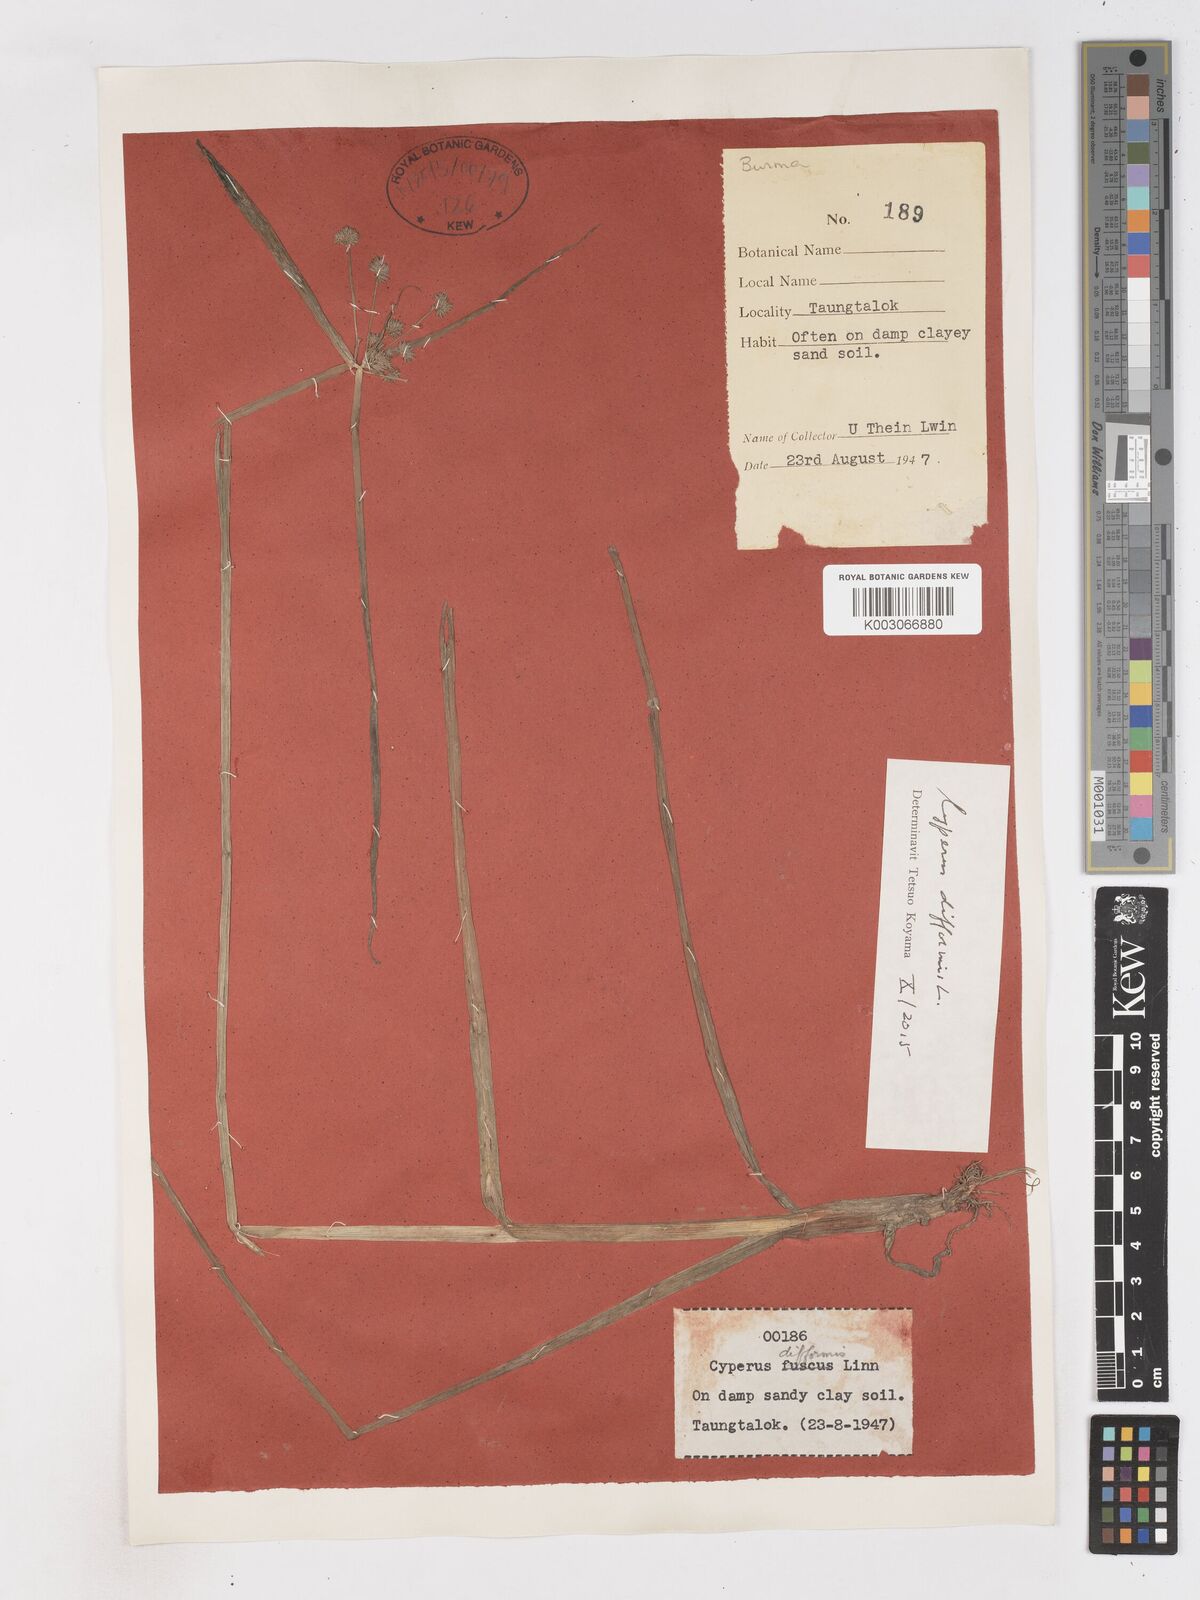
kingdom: Plantae
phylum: Tracheophyta
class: Liliopsida
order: Poales
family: Cyperaceae
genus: Cyperus
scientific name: Cyperus difformis
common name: Variable flatsedge
